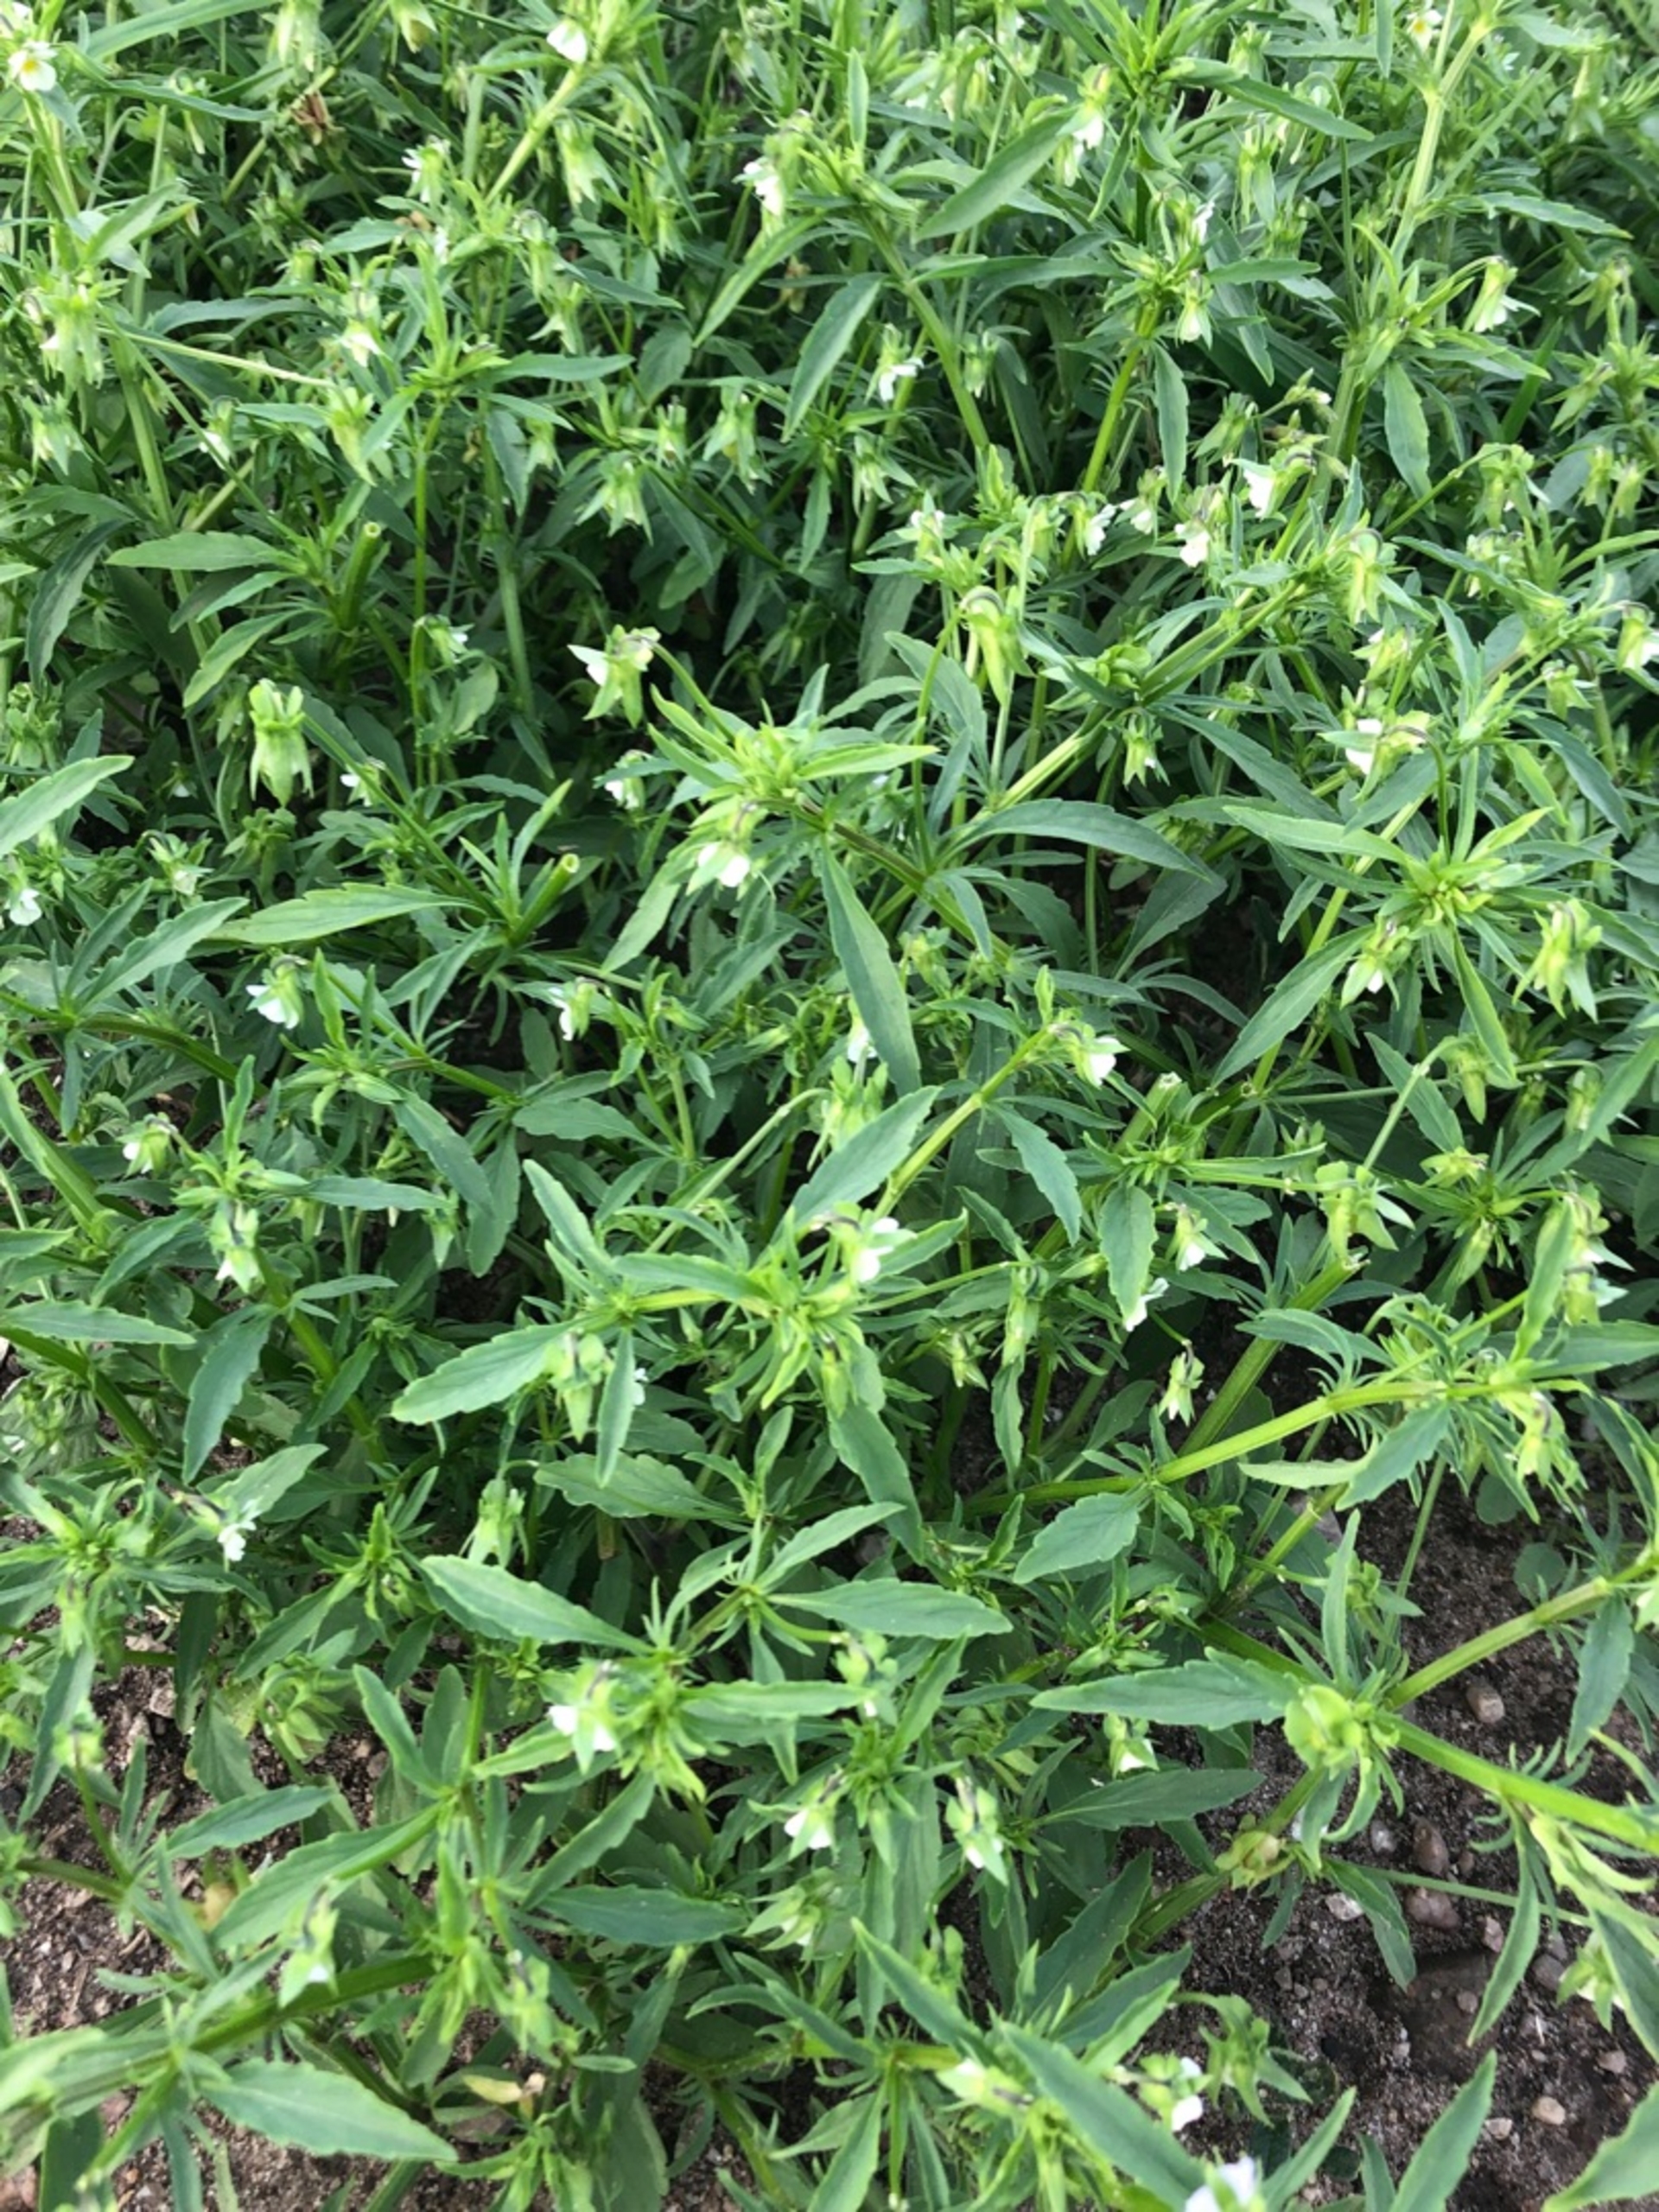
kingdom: Plantae
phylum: Tracheophyta
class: Magnoliopsida
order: Malpighiales
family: Violaceae
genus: Viola
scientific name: Viola arvensis
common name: Ager-stedmoderblomst
